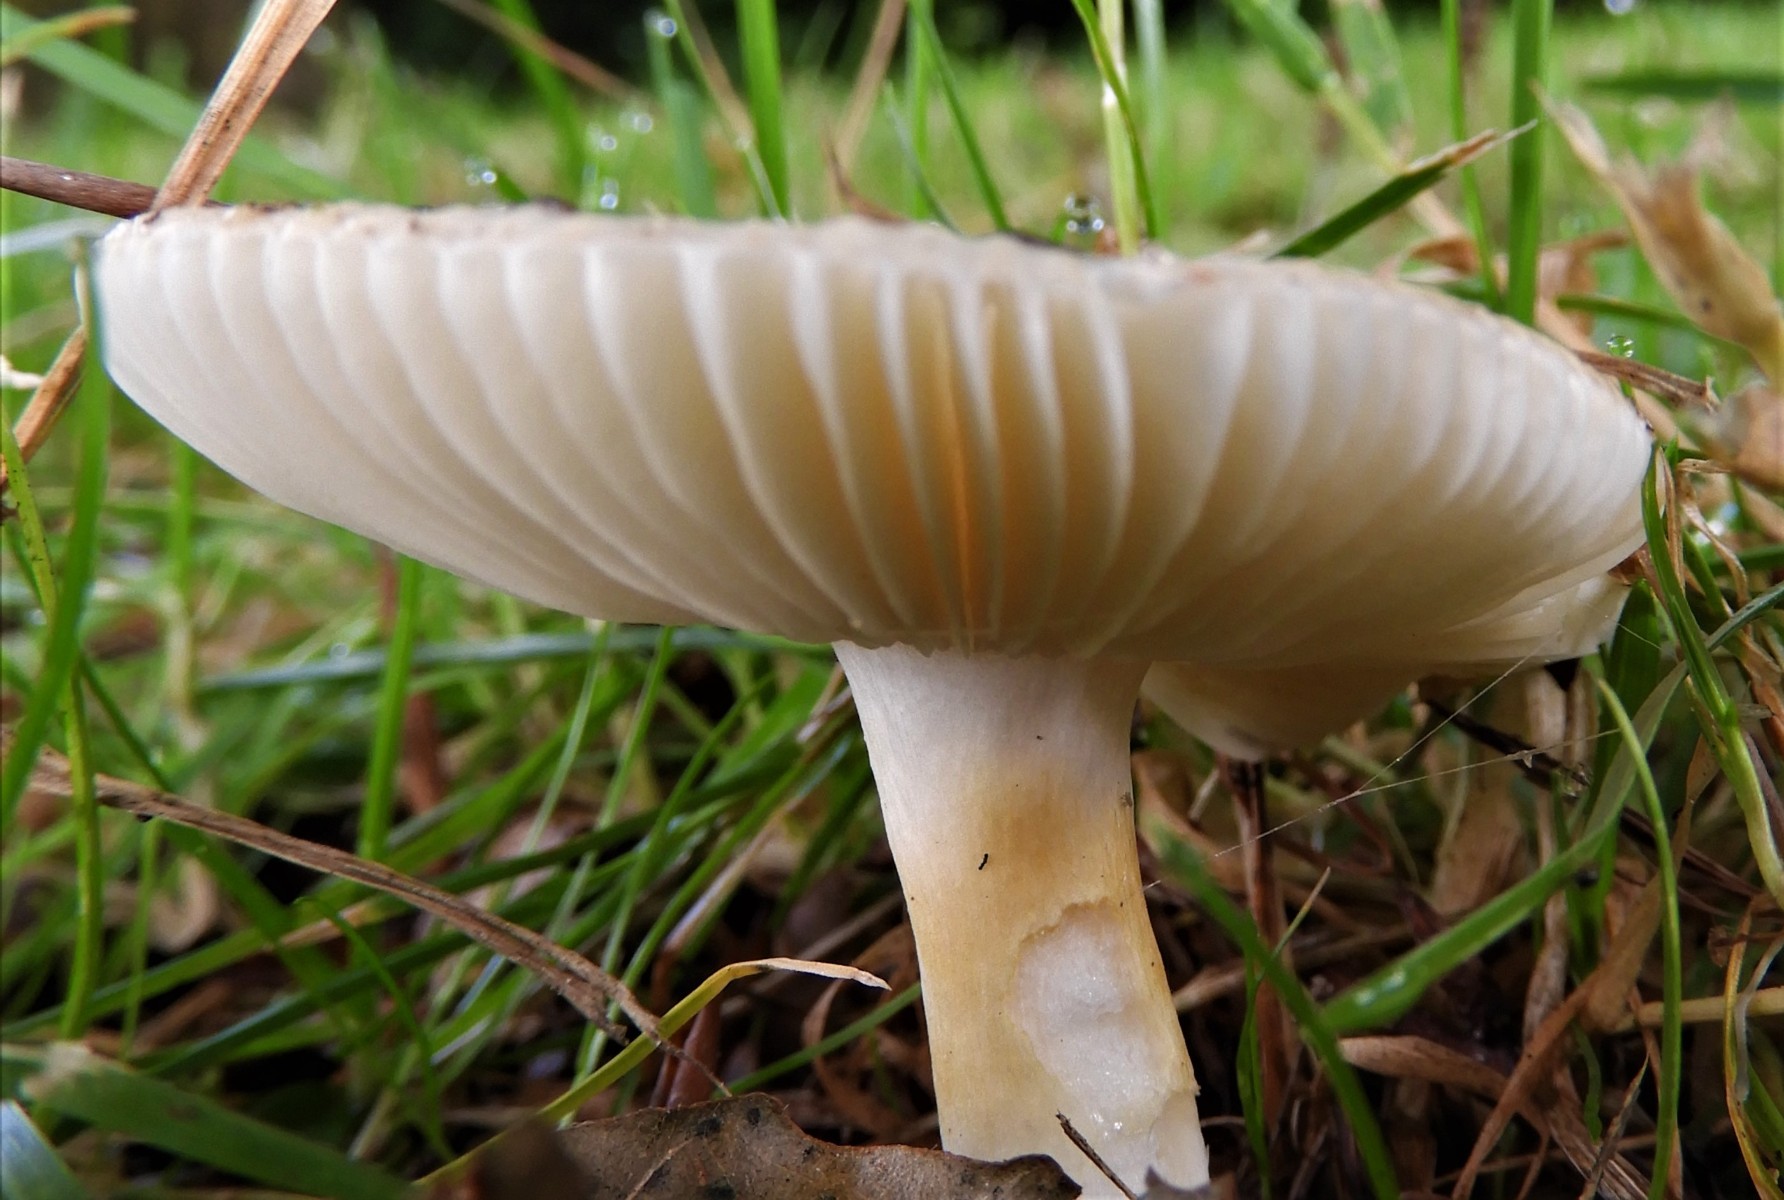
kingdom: Fungi
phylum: Basidiomycota
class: Agaricomycetes
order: Russulales
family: Russulaceae
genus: Russula
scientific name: Russula solaris
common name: sol-skørhat
